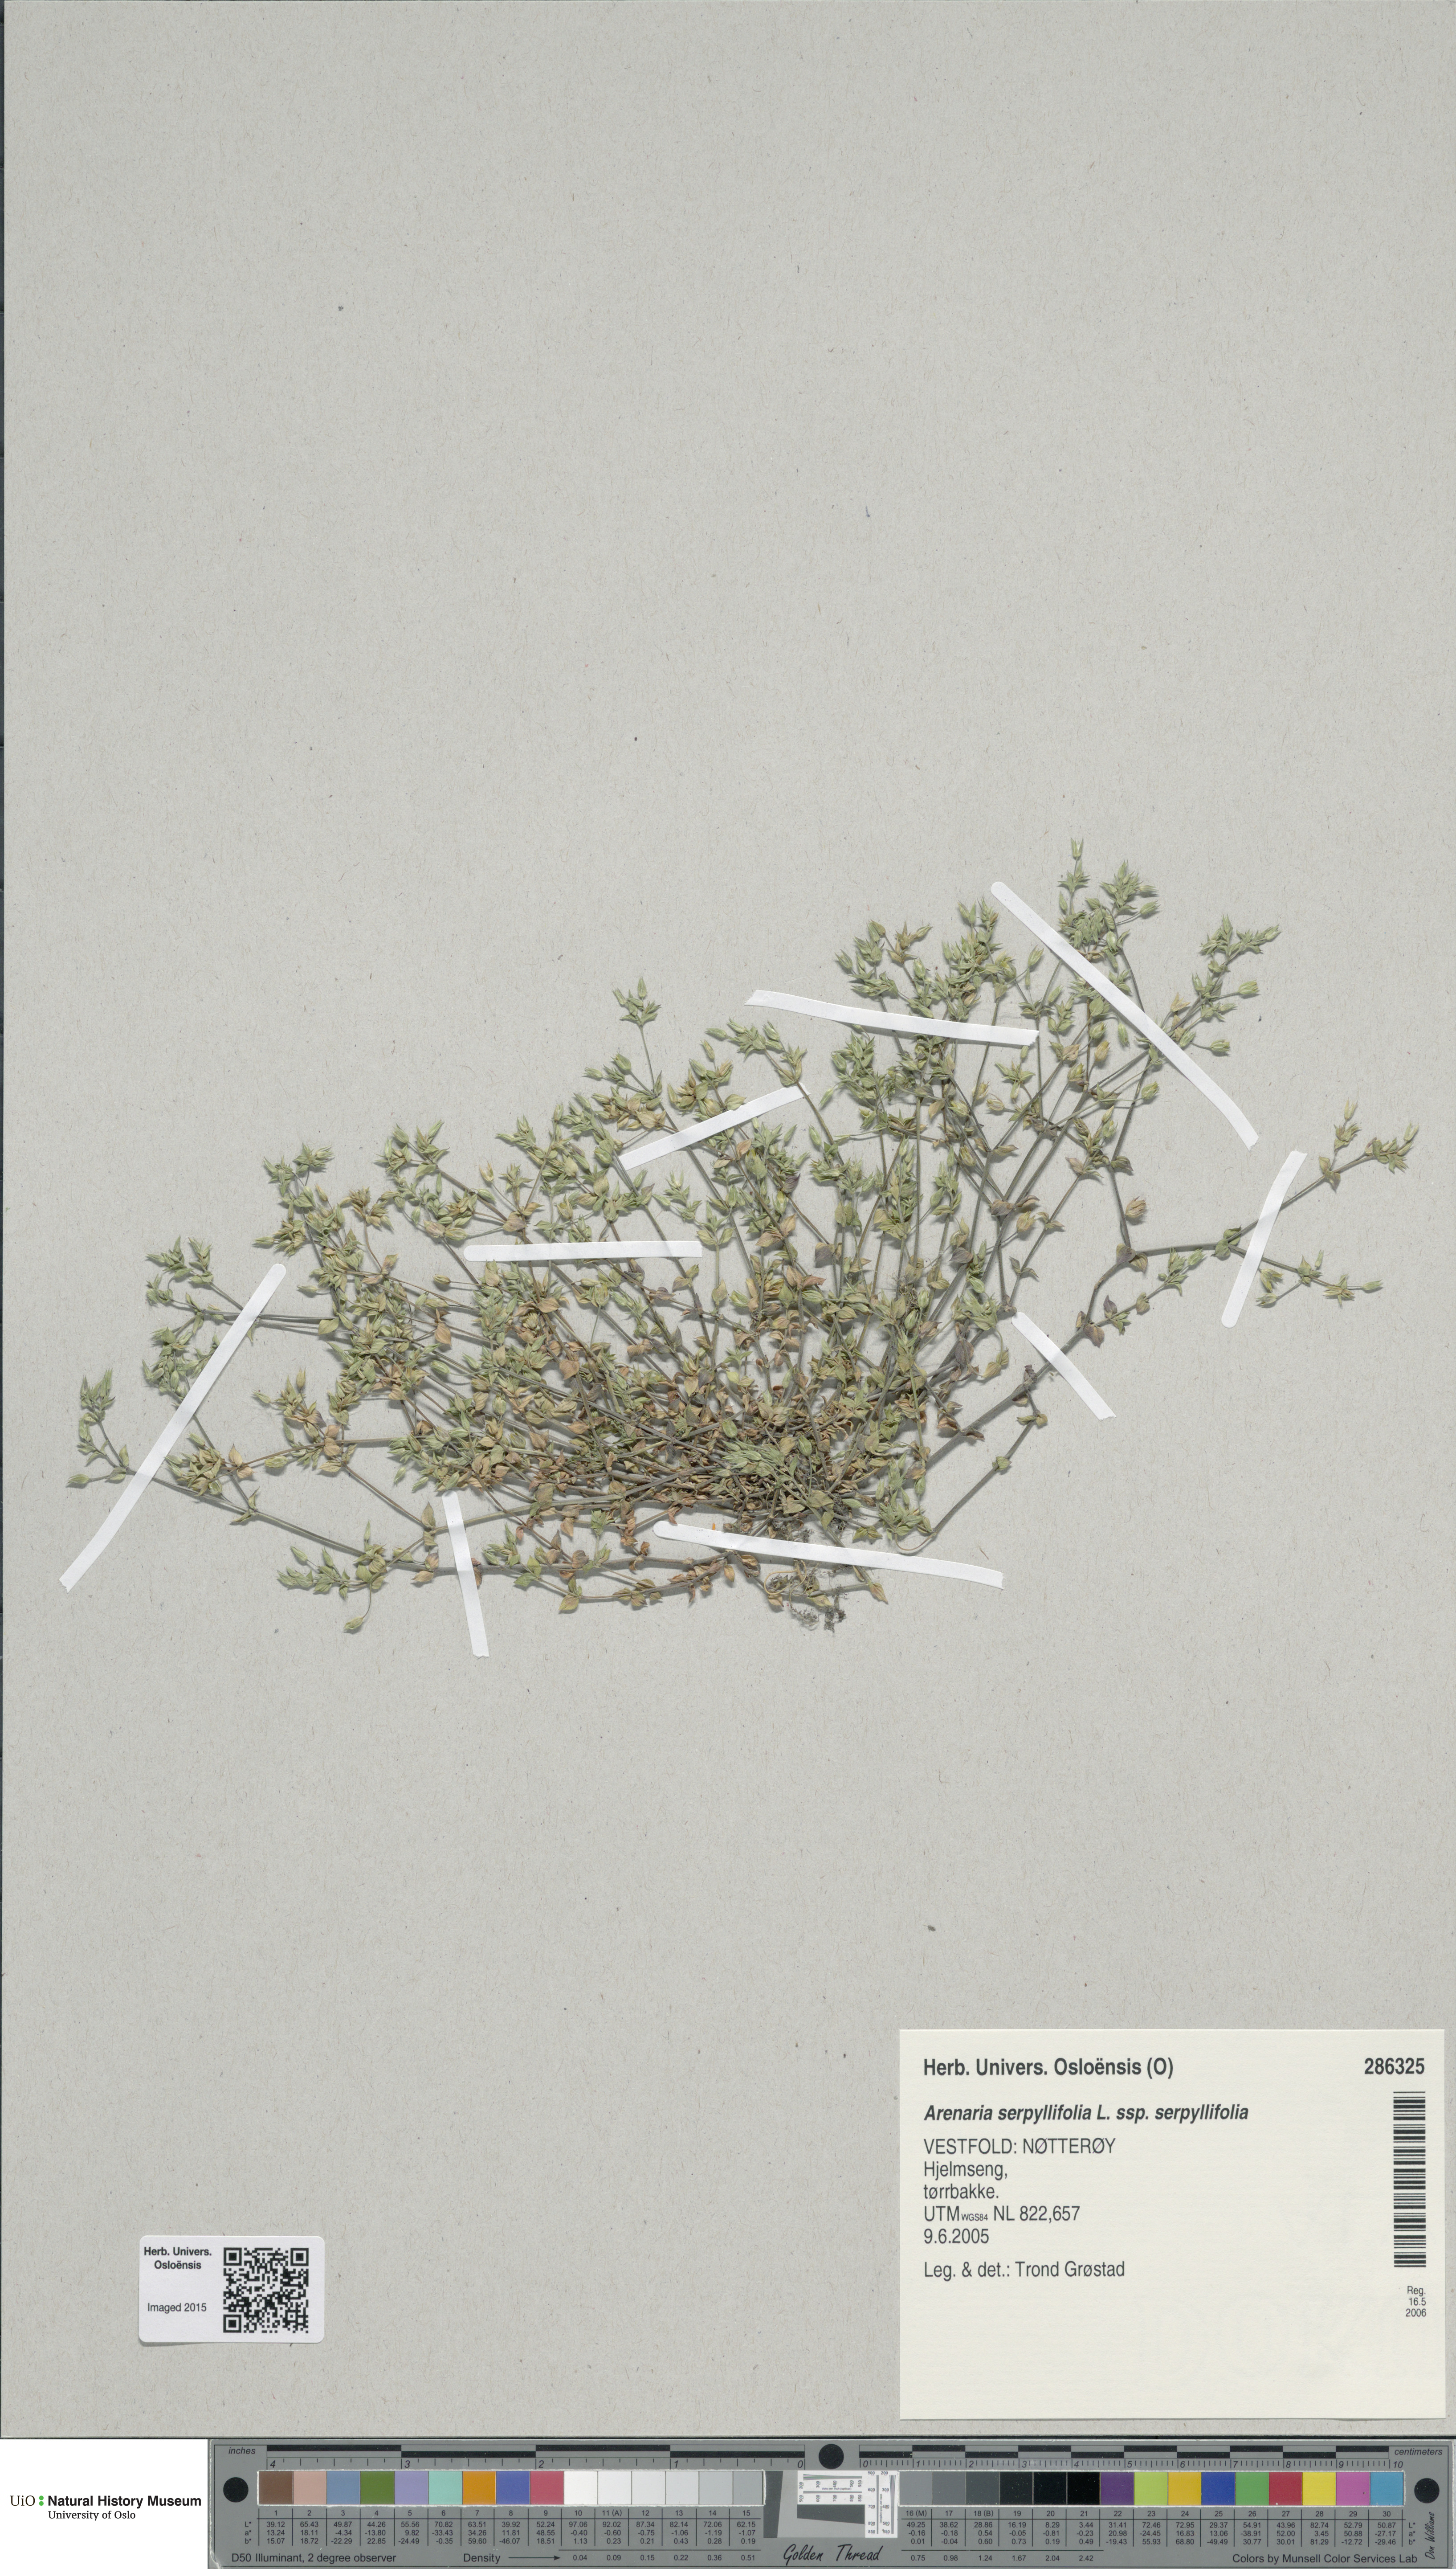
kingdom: Plantae
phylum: Tracheophyta
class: Magnoliopsida
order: Caryophyllales
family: Caryophyllaceae
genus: Arenaria
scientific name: Arenaria serpyllifolia
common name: Thyme-leaved sandwort
